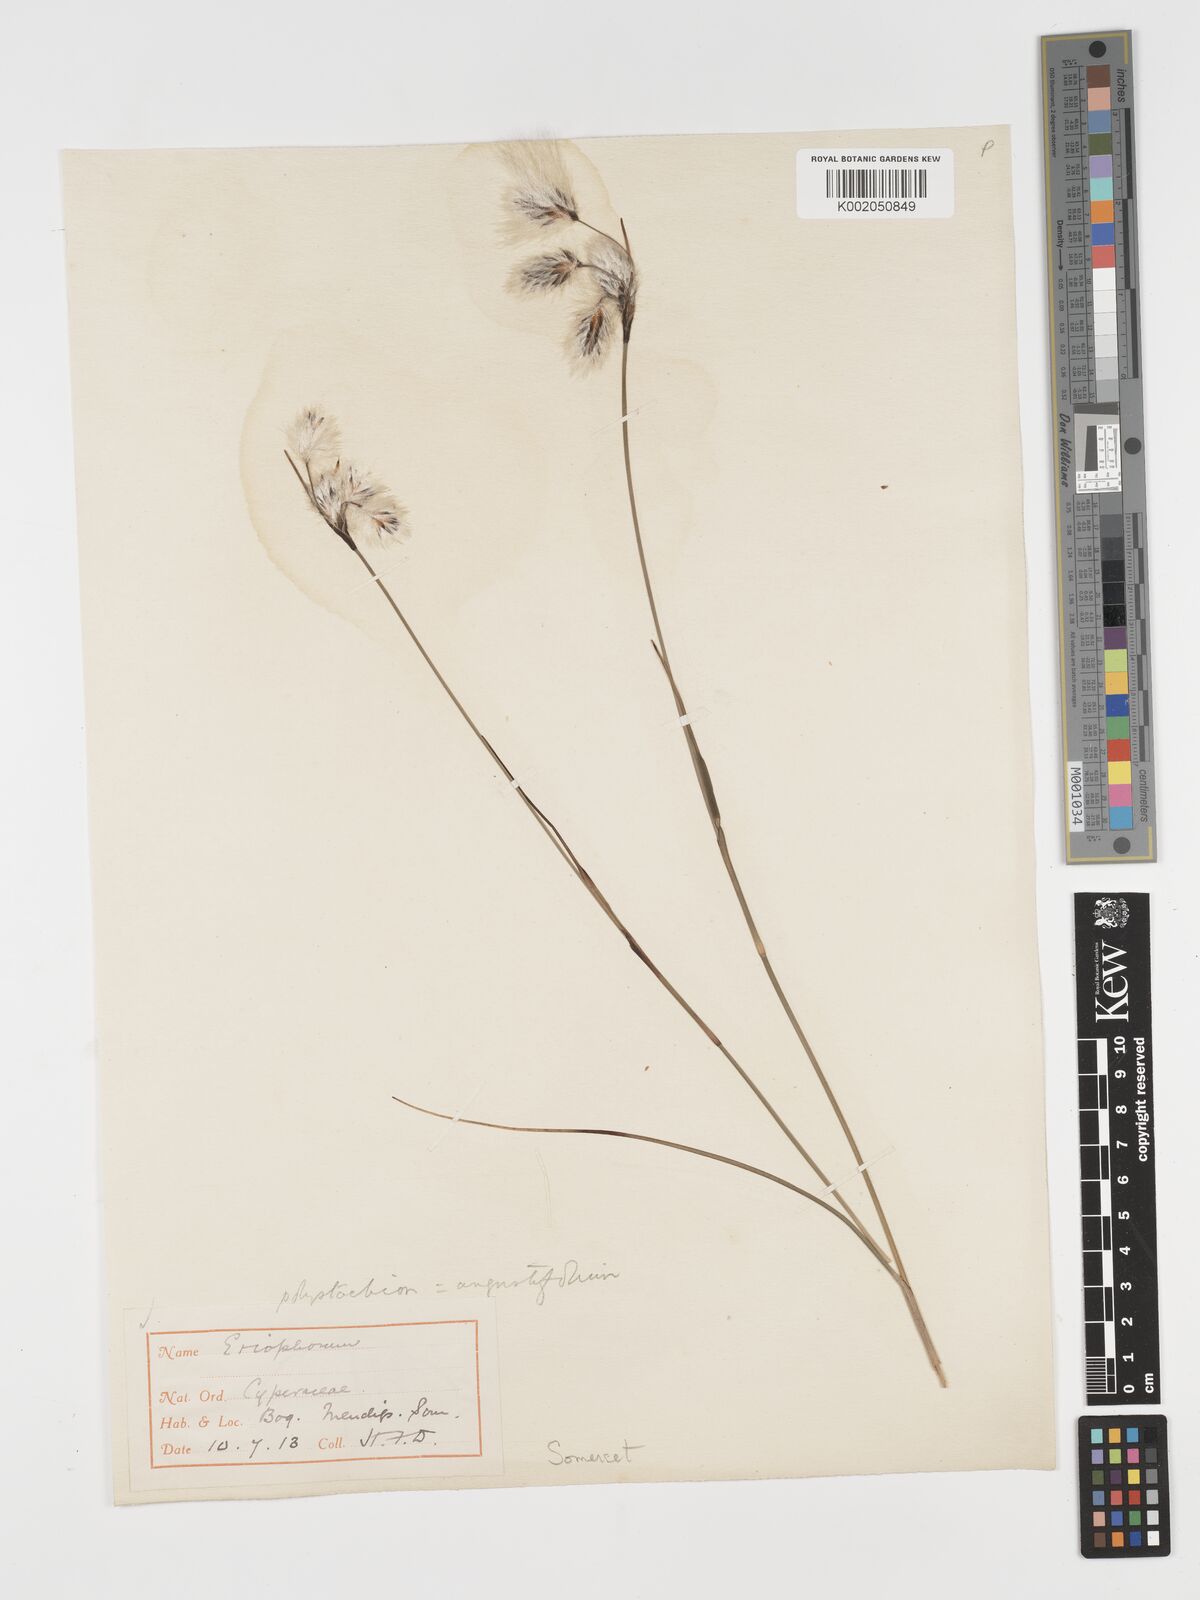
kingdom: Plantae
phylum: Tracheophyta
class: Liliopsida
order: Poales
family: Cyperaceae
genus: Eriophorum
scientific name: Eriophorum angustifolium
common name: Common cottongrass
